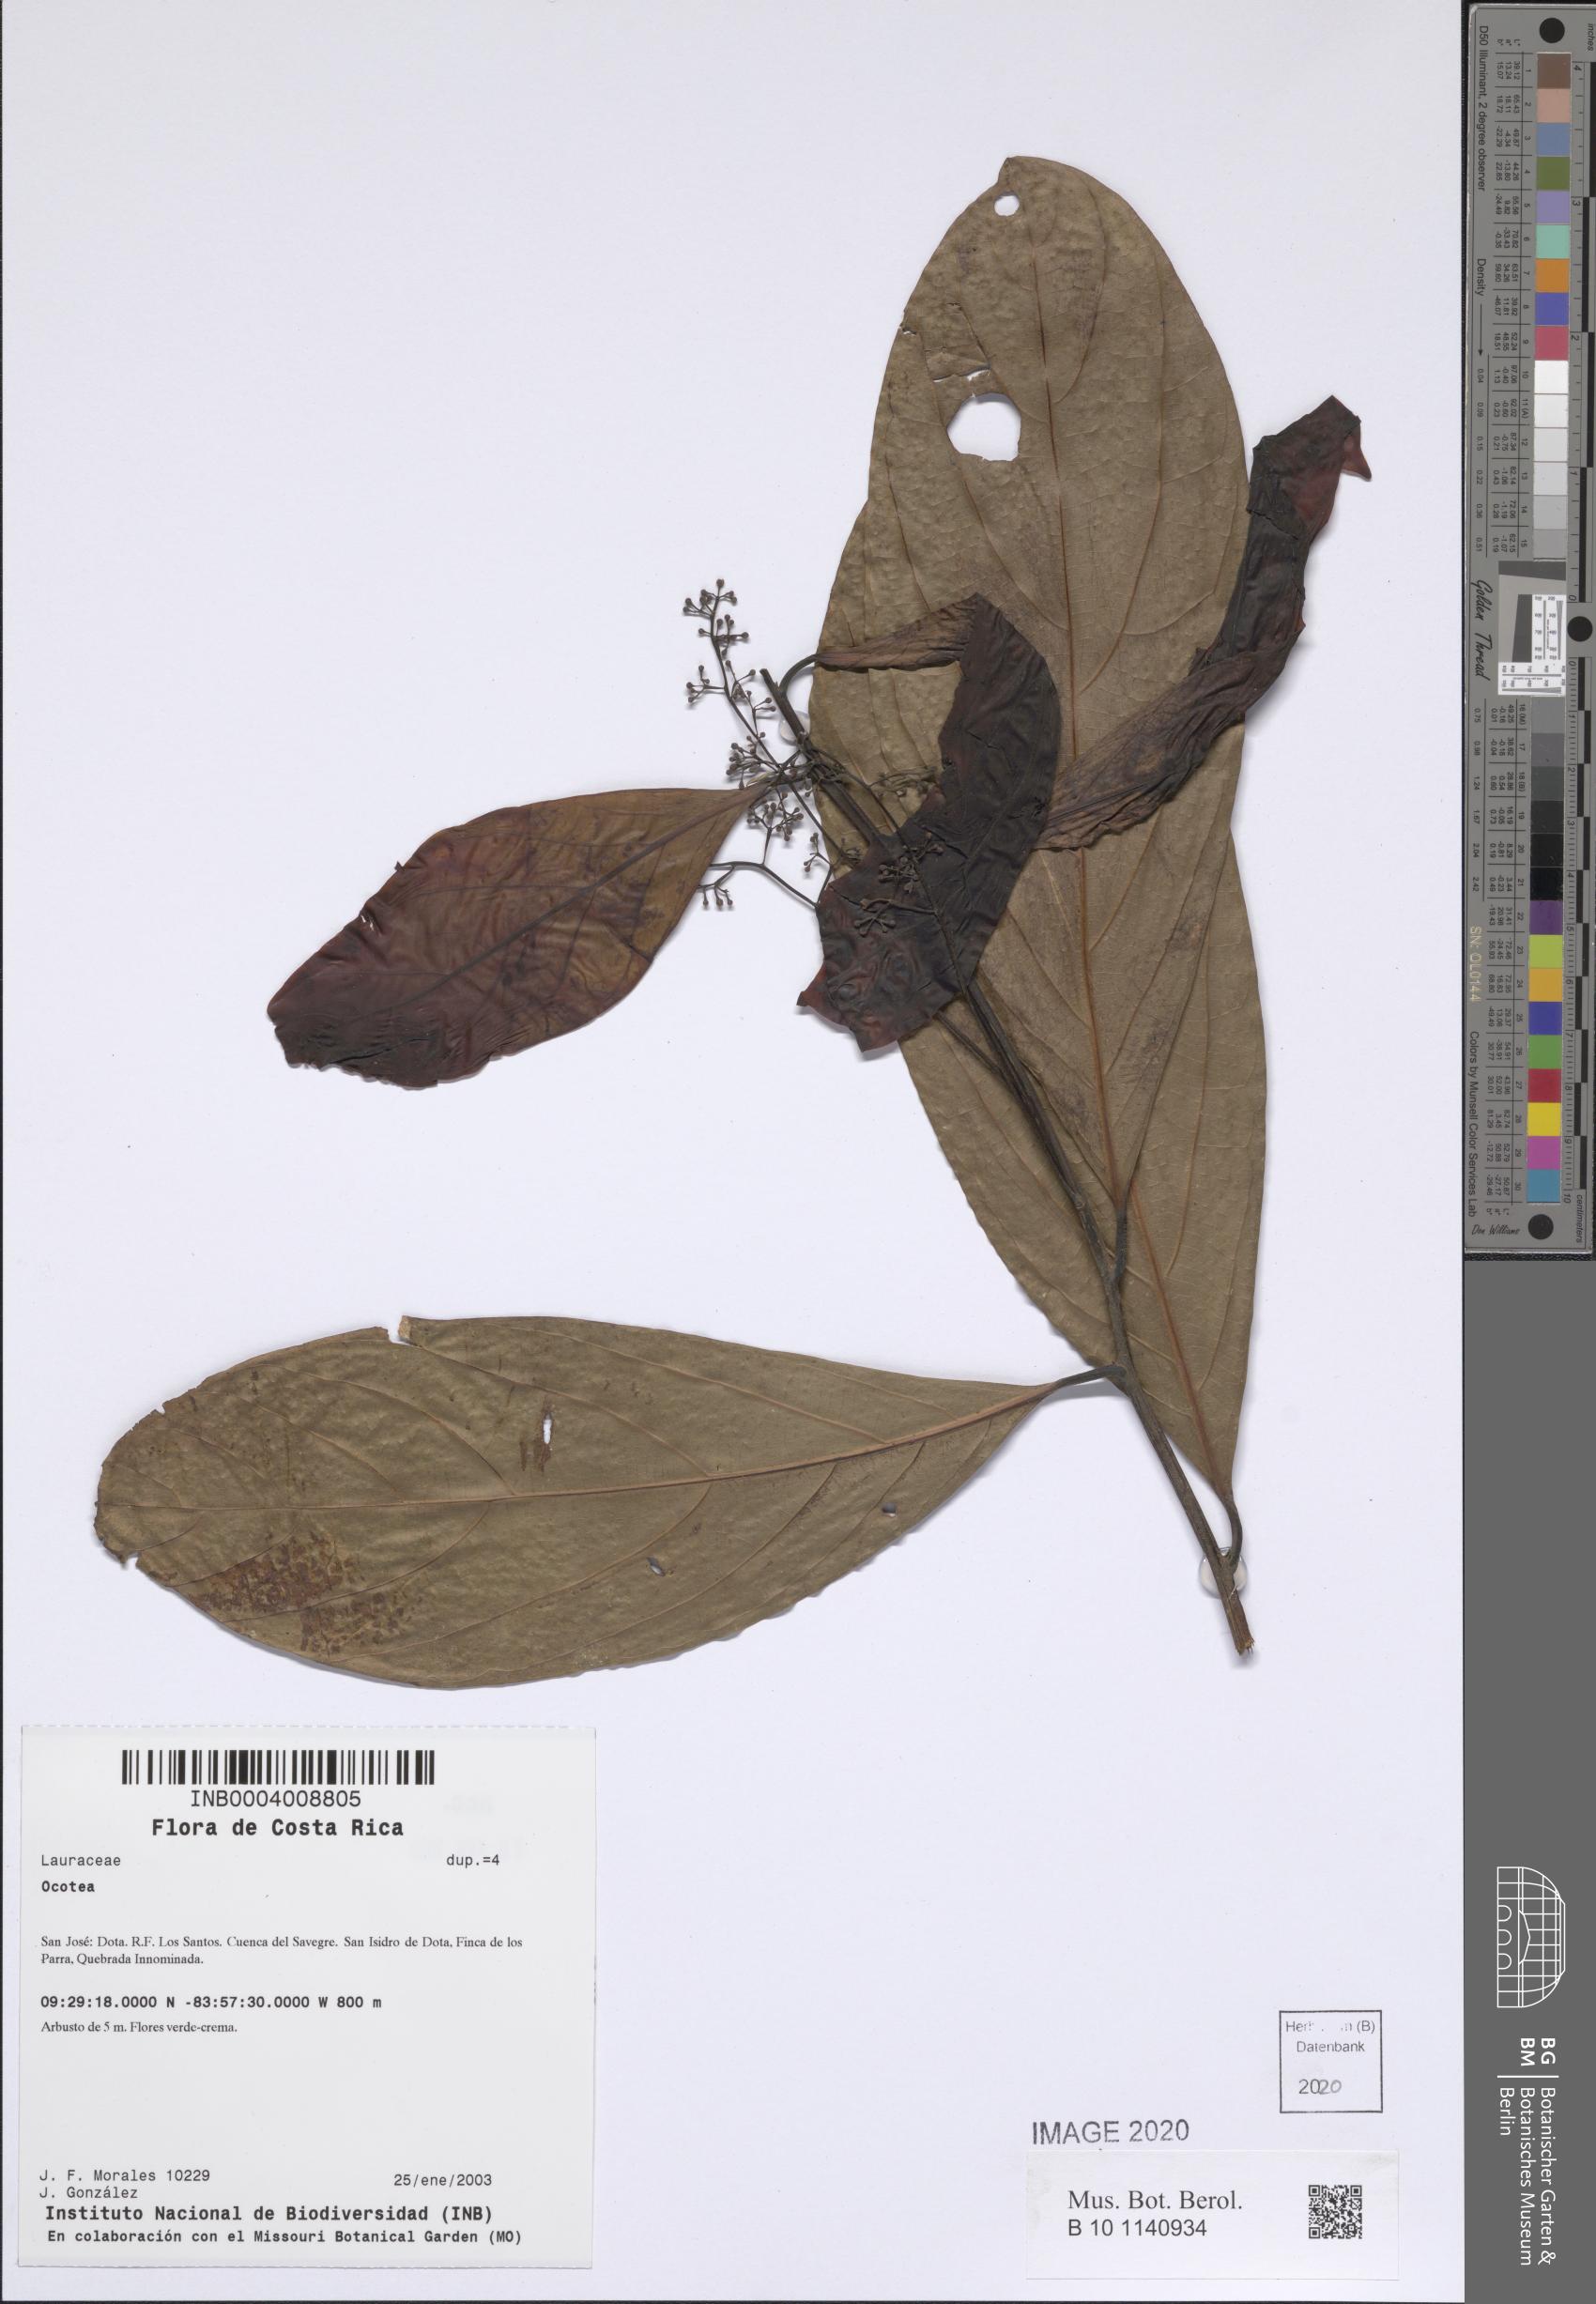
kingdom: Plantae
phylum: Tracheophyta
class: Magnoliopsida
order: Laurales
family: Lauraceae
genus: Ocotea
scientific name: Ocotea
